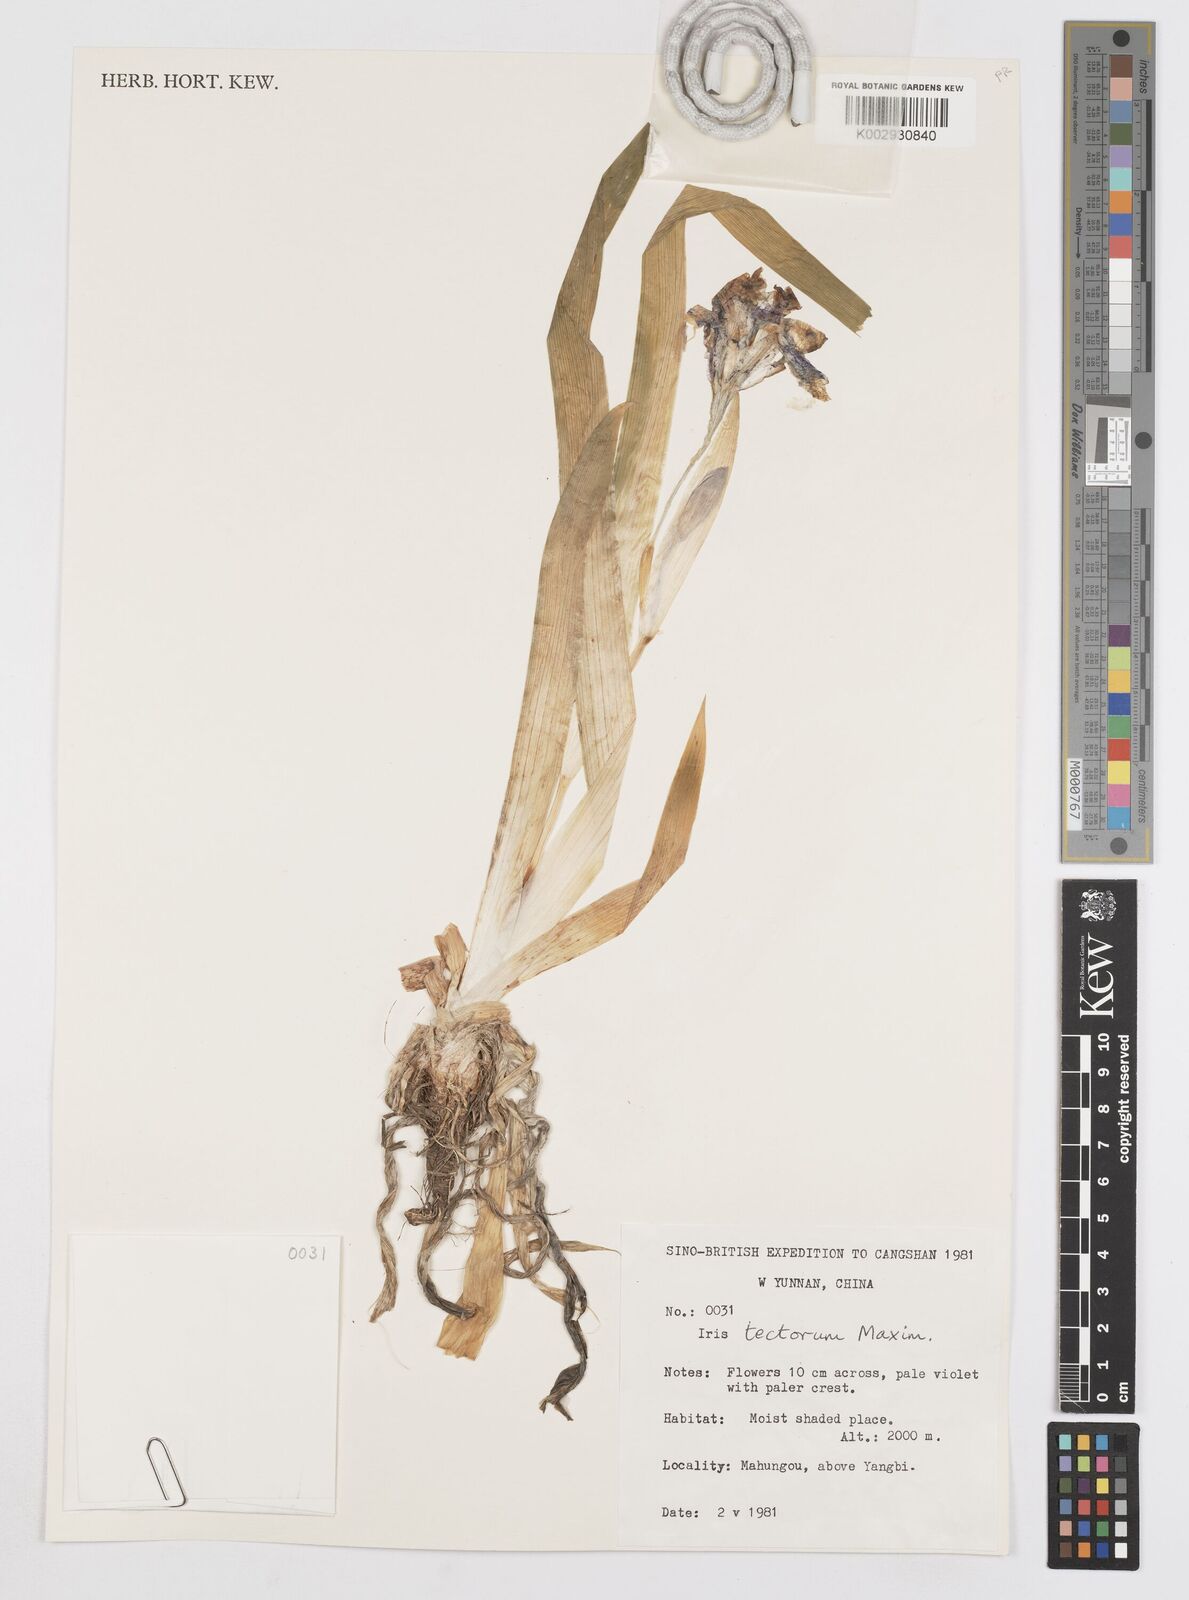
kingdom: Plantae
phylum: Tracheophyta
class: Liliopsida
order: Asparagales
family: Iridaceae
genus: Iris
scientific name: Iris tectorum
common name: Wall iris
